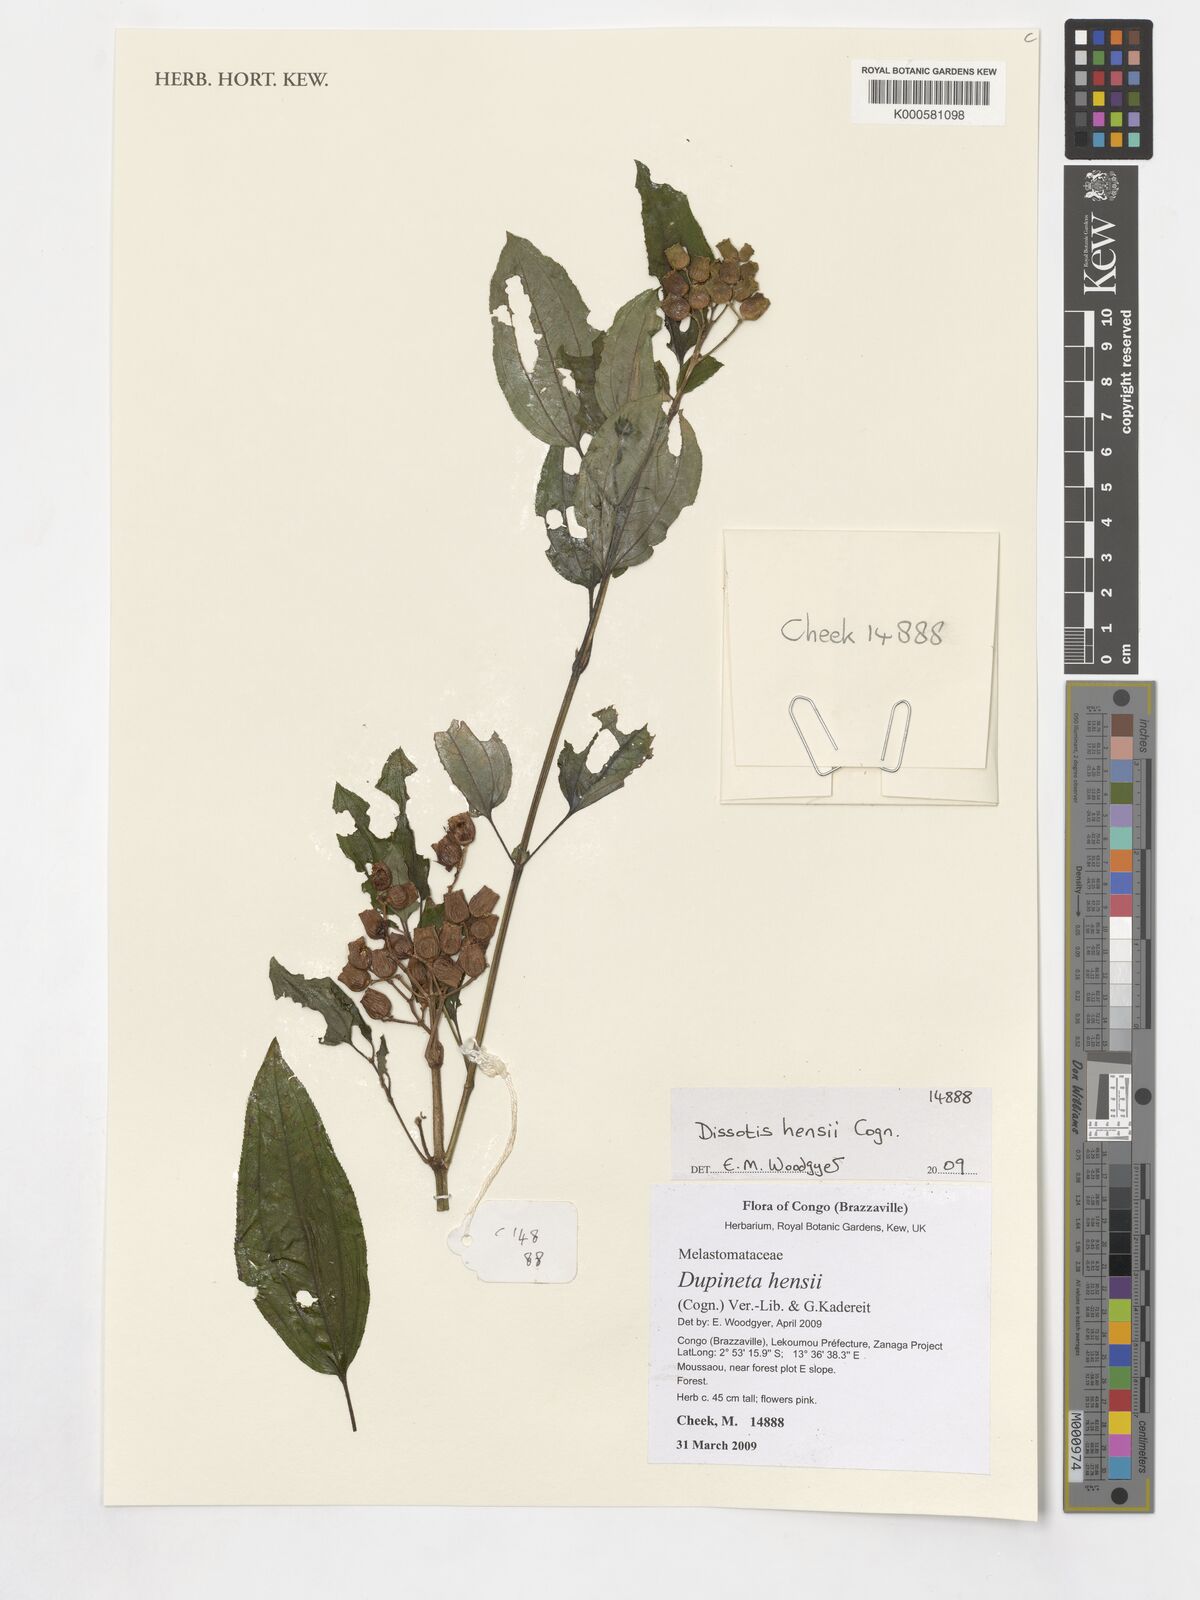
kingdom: Plantae
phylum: Tracheophyta
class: Magnoliopsida
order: Myrtales
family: Melastomataceae
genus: Dupineta
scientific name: Dupineta hensii
